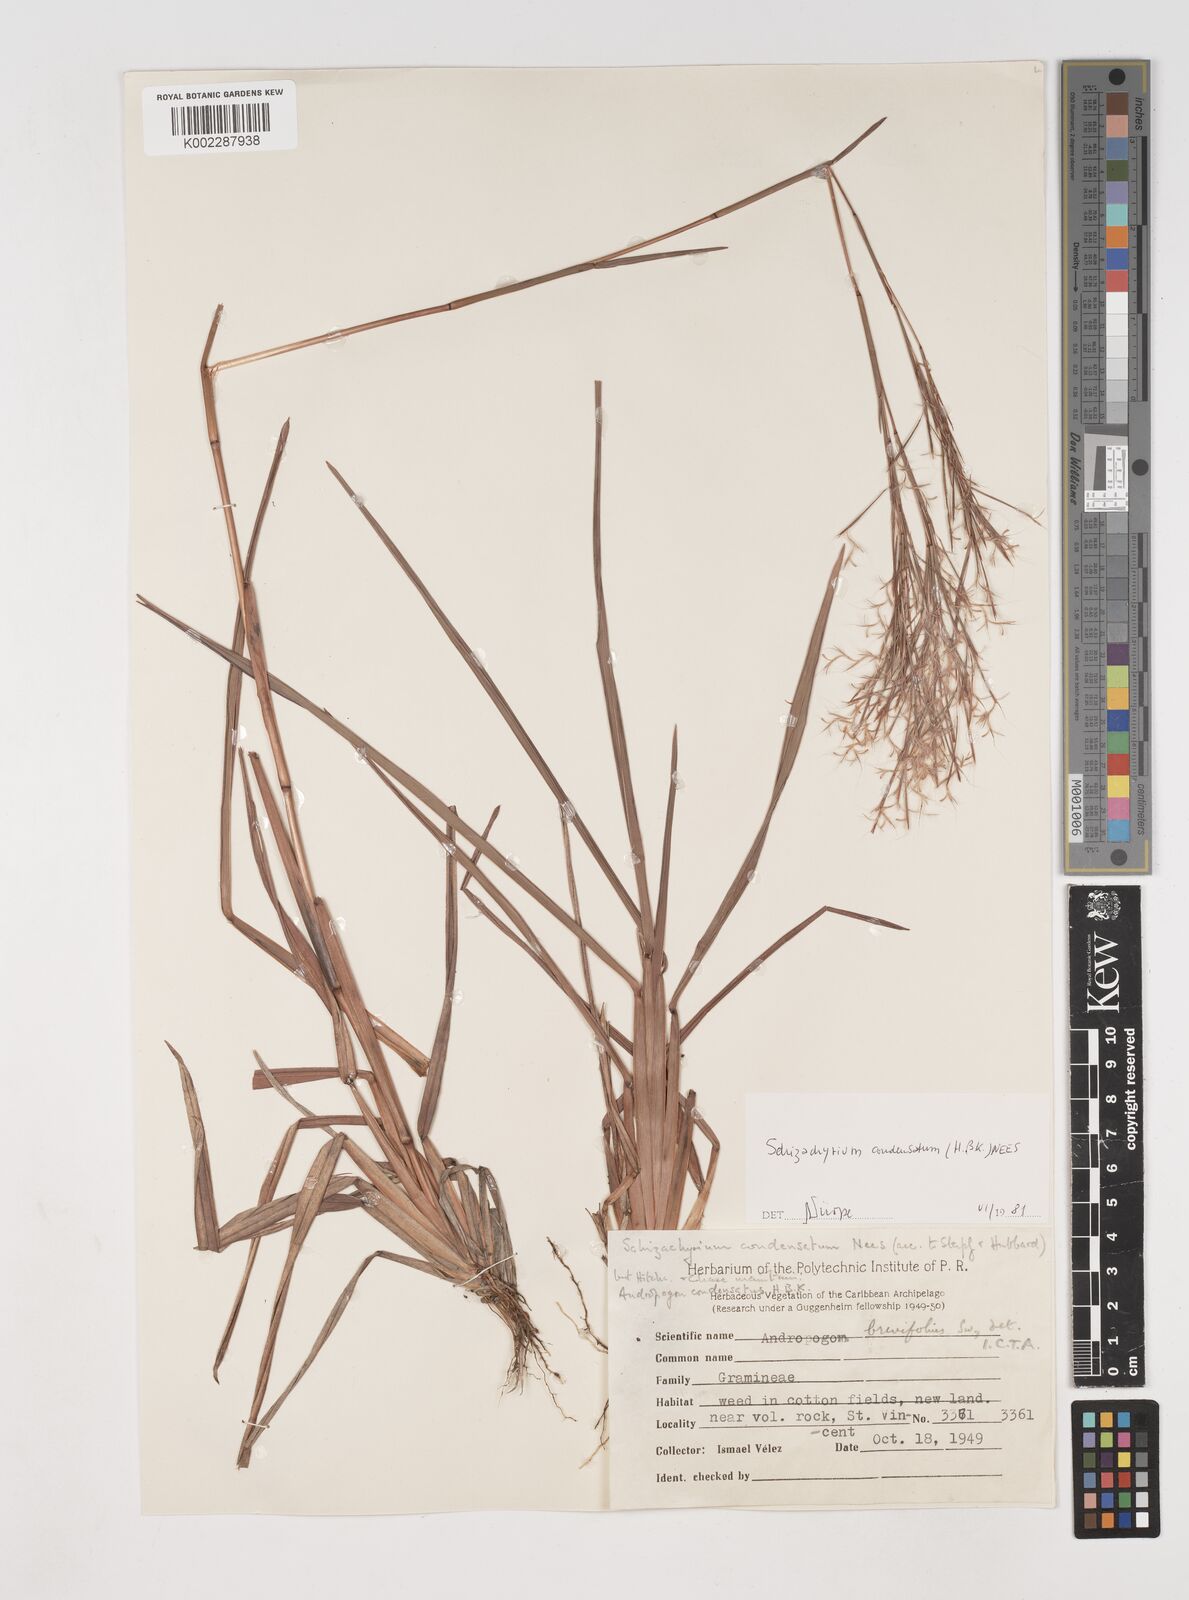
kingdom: Plantae
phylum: Tracheophyta
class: Liliopsida
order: Poales
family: Poaceae
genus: Schizachyrium
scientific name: Schizachyrium condensatum
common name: Bush beardgrass
